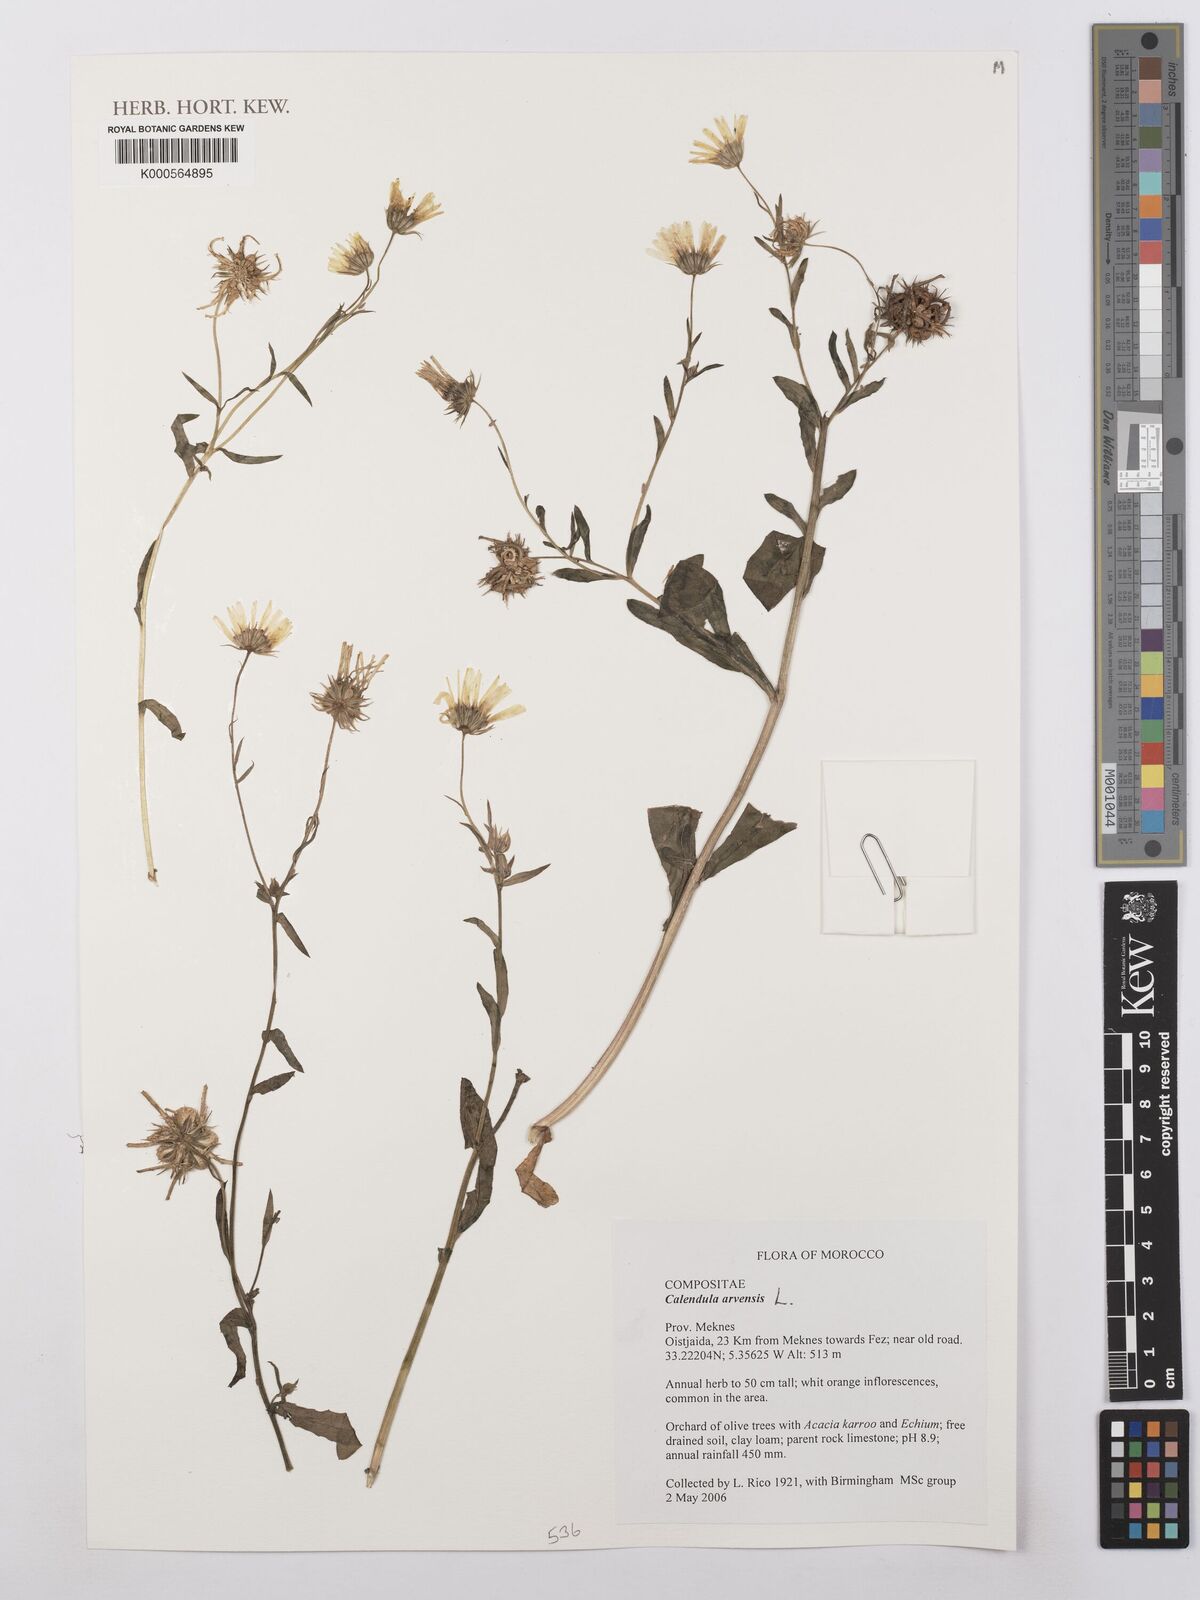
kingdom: Plantae
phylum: Tracheophyta
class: Magnoliopsida
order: Asterales
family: Asteraceae
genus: Calendula
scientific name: Calendula arvensis
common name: Field marigold
